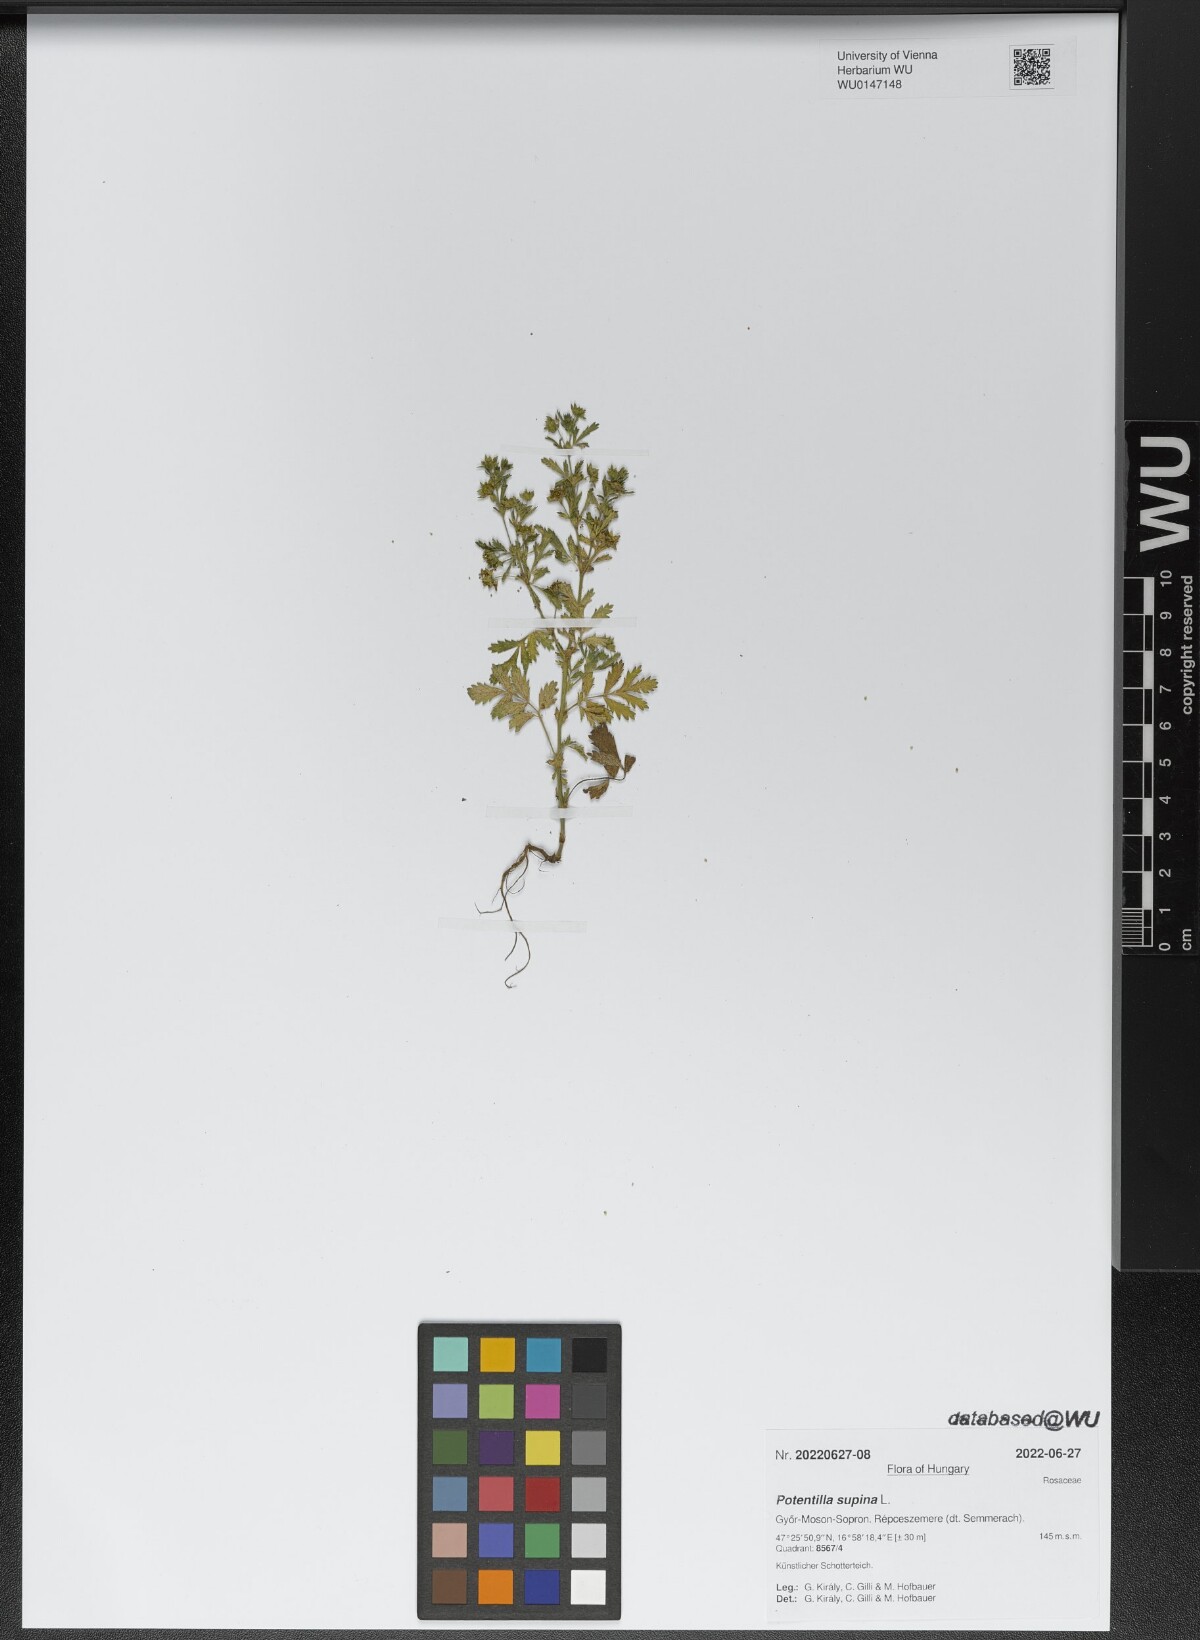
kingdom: Plantae
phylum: Tracheophyta
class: Magnoliopsida
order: Rosales
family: Rosaceae
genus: Potentilla
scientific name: Potentilla supina
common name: Prostrate cinquefoil
